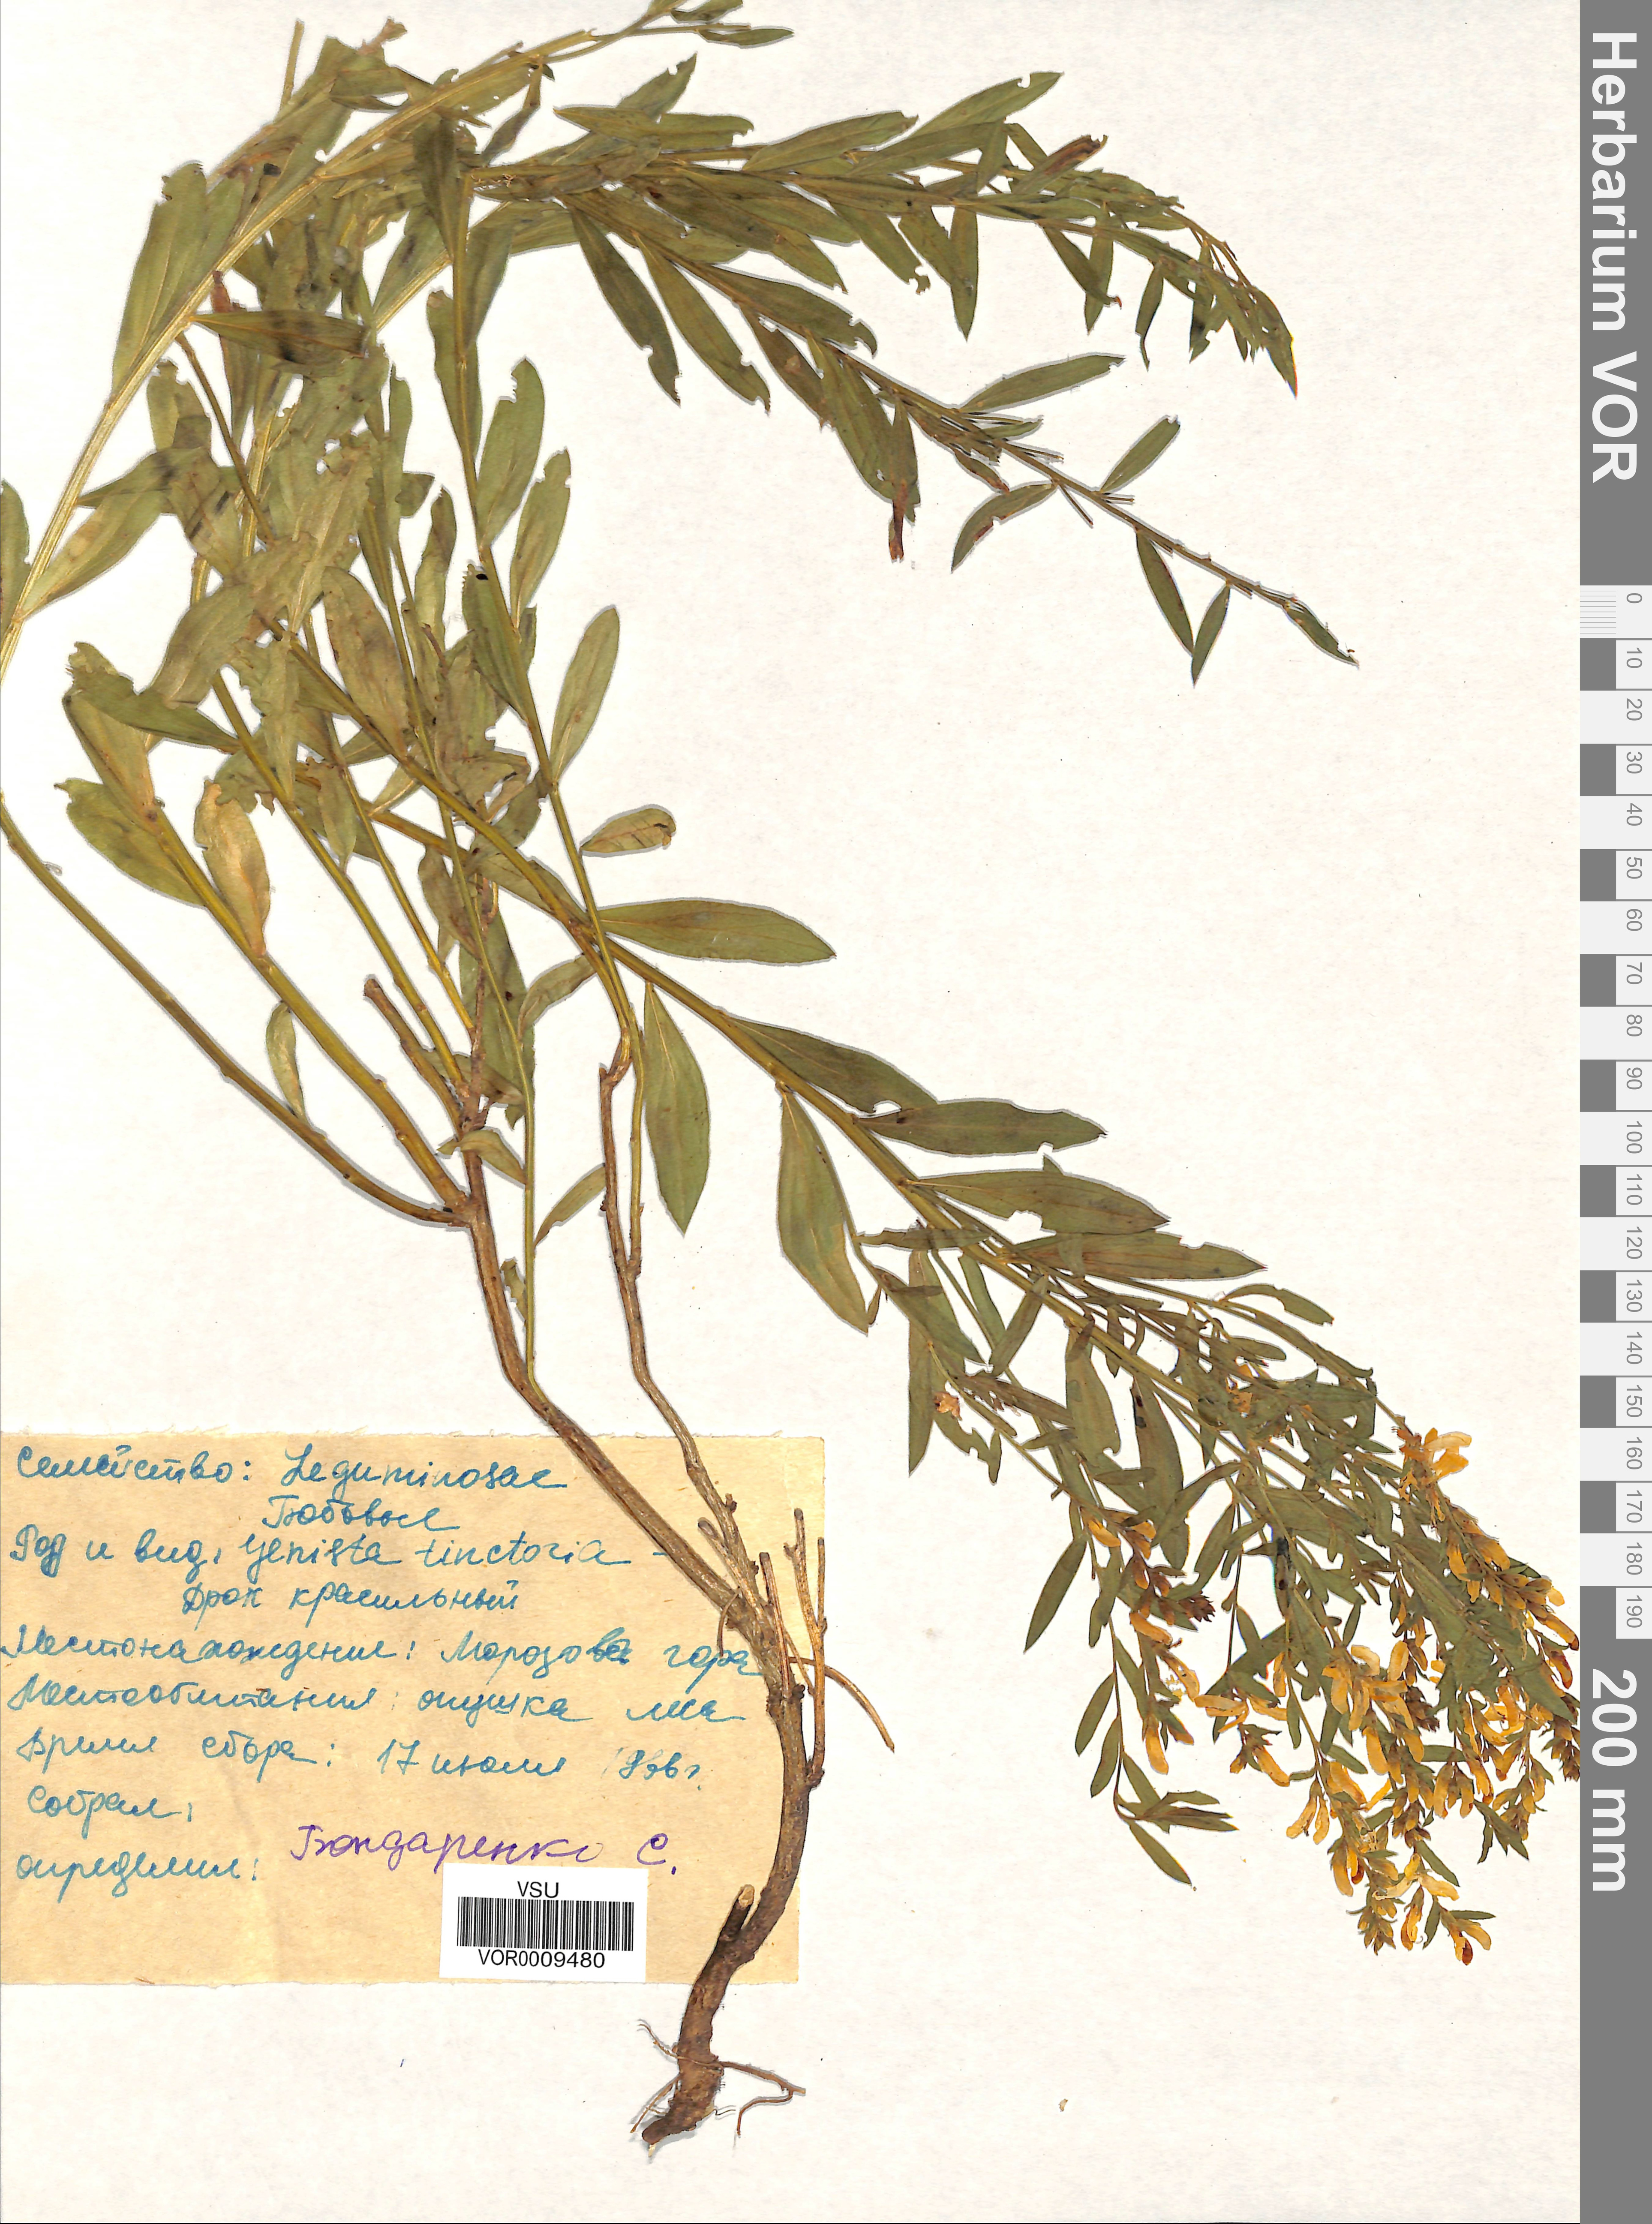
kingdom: Plantae
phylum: Tracheophyta
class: Magnoliopsida
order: Fabales
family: Fabaceae
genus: Genista
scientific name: Genista tinctoria
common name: Dyer's greenweed
